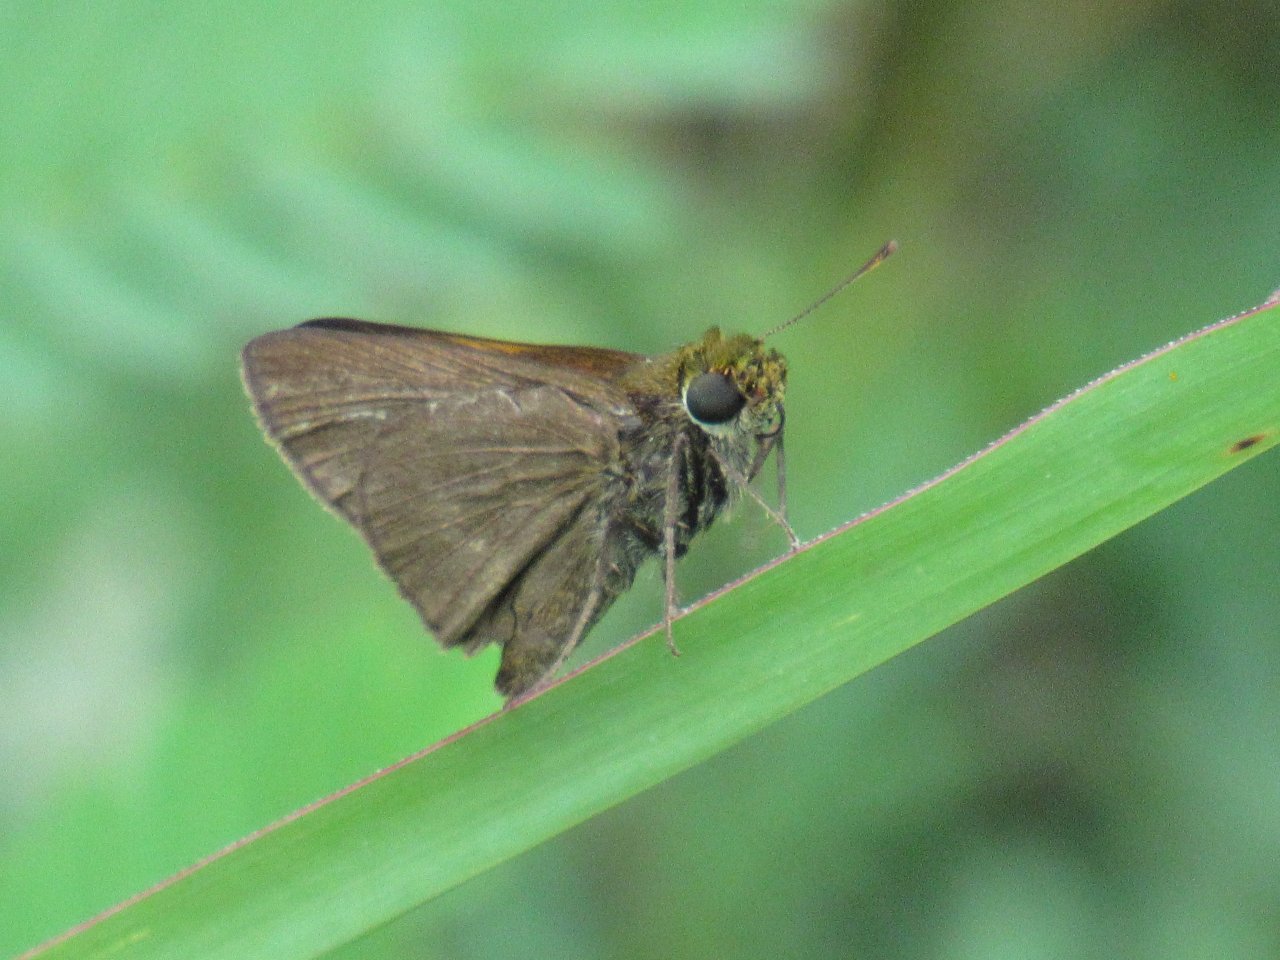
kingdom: Animalia
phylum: Arthropoda
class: Insecta
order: Lepidoptera
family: Hesperiidae
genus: Euphyes
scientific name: Euphyes vestris
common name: Dun Skipper
